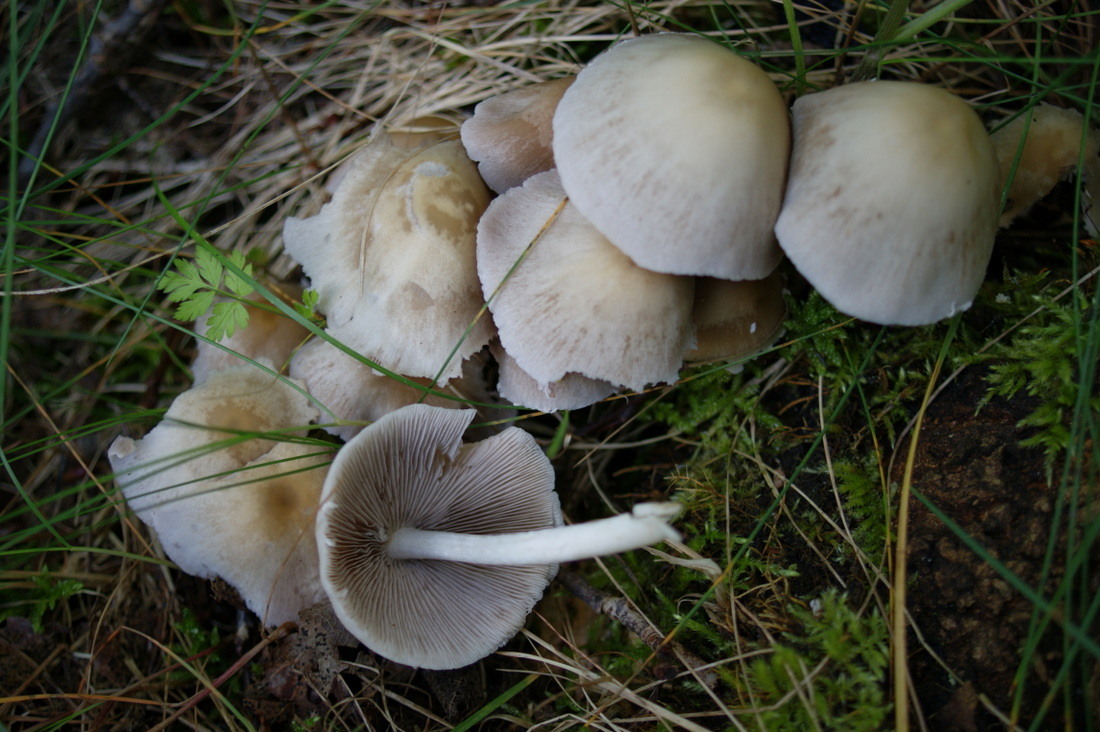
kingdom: Fungi
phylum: Basidiomycota
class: Agaricomycetes
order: Agaricales
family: Psathyrellaceae
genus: Candolleomyces
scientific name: Candolleomyces candolleanus
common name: Candolles mørkhat
